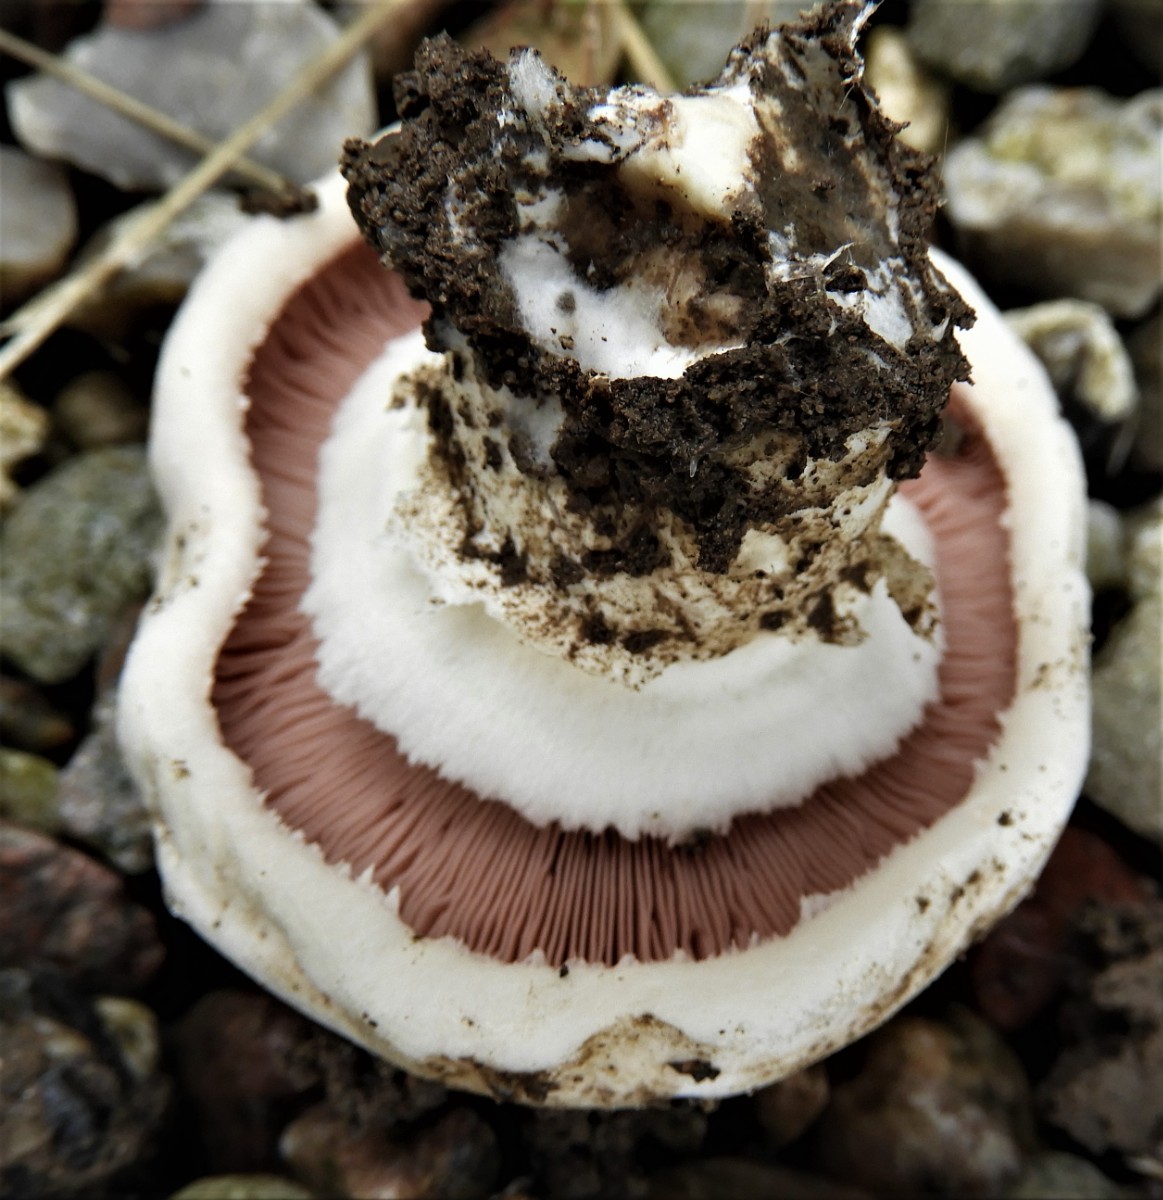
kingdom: Fungi
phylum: Basidiomycota
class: Agaricomycetes
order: Agaricales
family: Agaricaceae
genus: Agaricus
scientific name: Agaricus bitorquis
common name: vej-champignon
